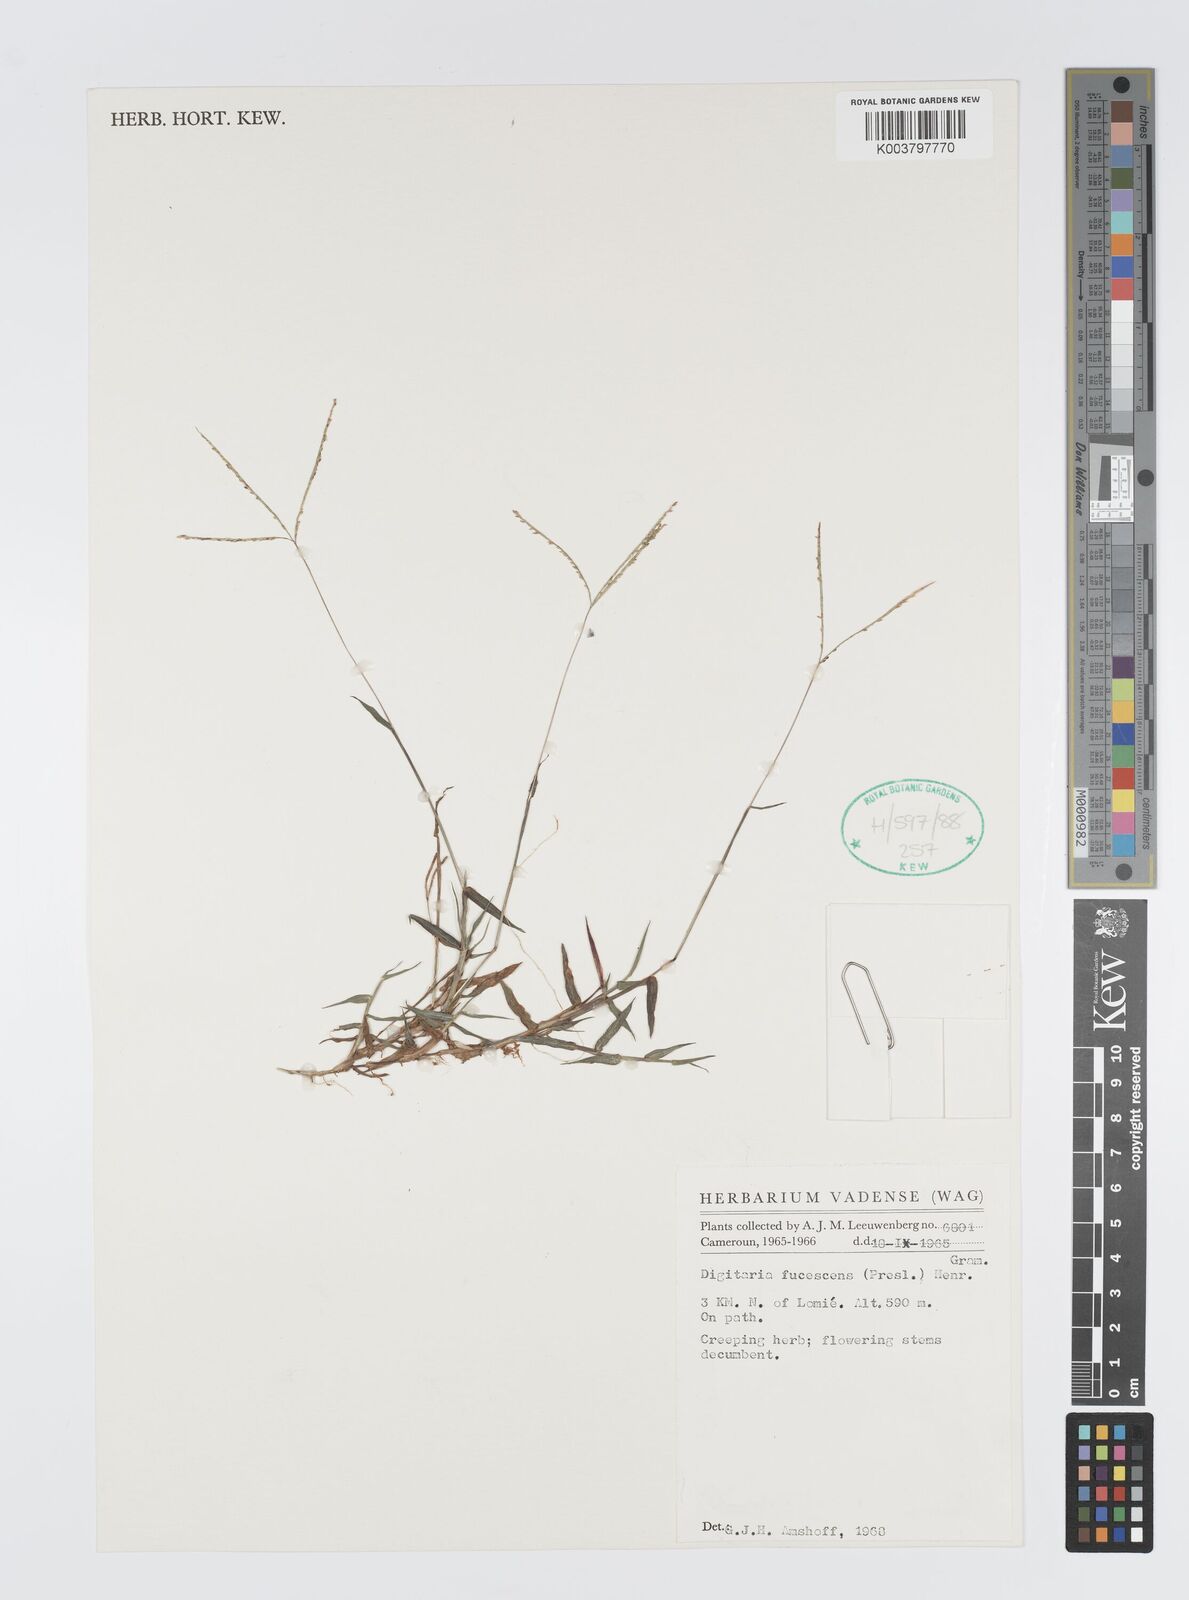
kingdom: Plantae
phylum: Tracheophyta
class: Liliopsida
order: Poales
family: Poaceae
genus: Digitaria
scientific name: Digitaria fuscescens
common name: Yellow crabgrass
